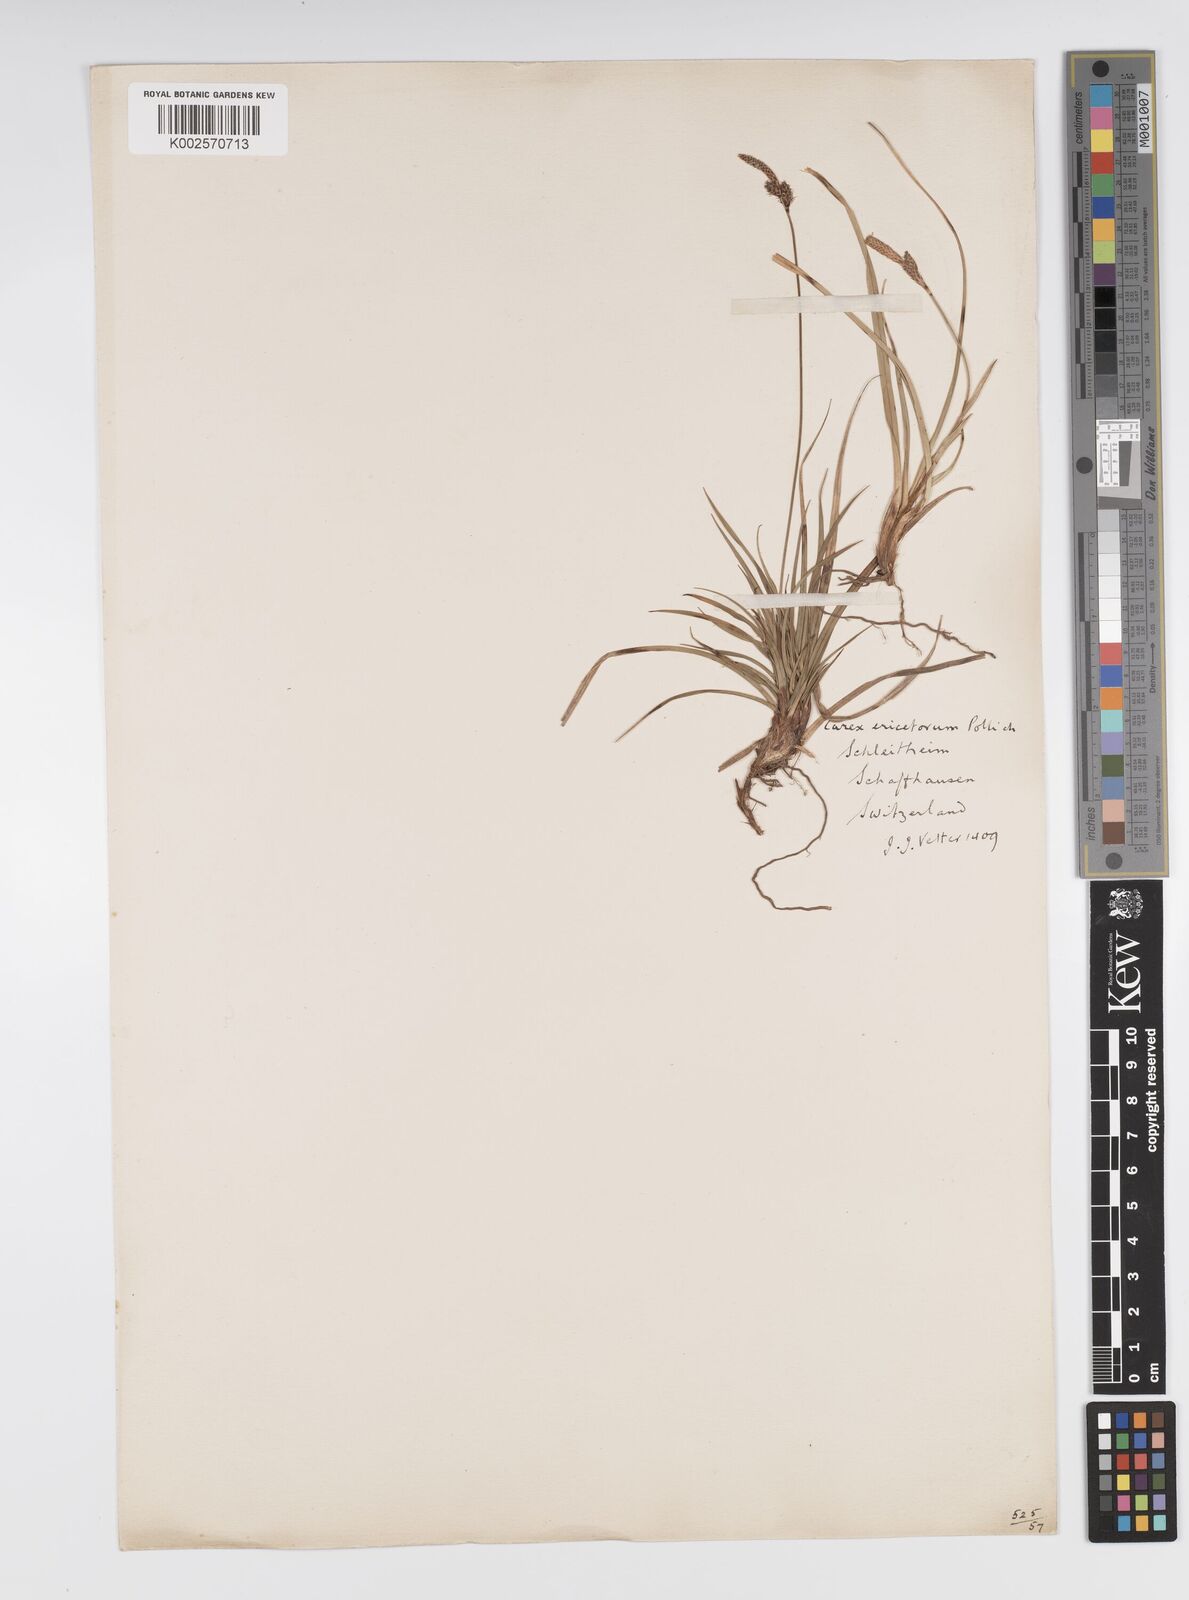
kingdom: Plantae
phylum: Tracheophyta
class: Liliopsida
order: Poales
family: Cyperaceae
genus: Carex
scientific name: Carex ericetorum
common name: Rare spring-sedge
